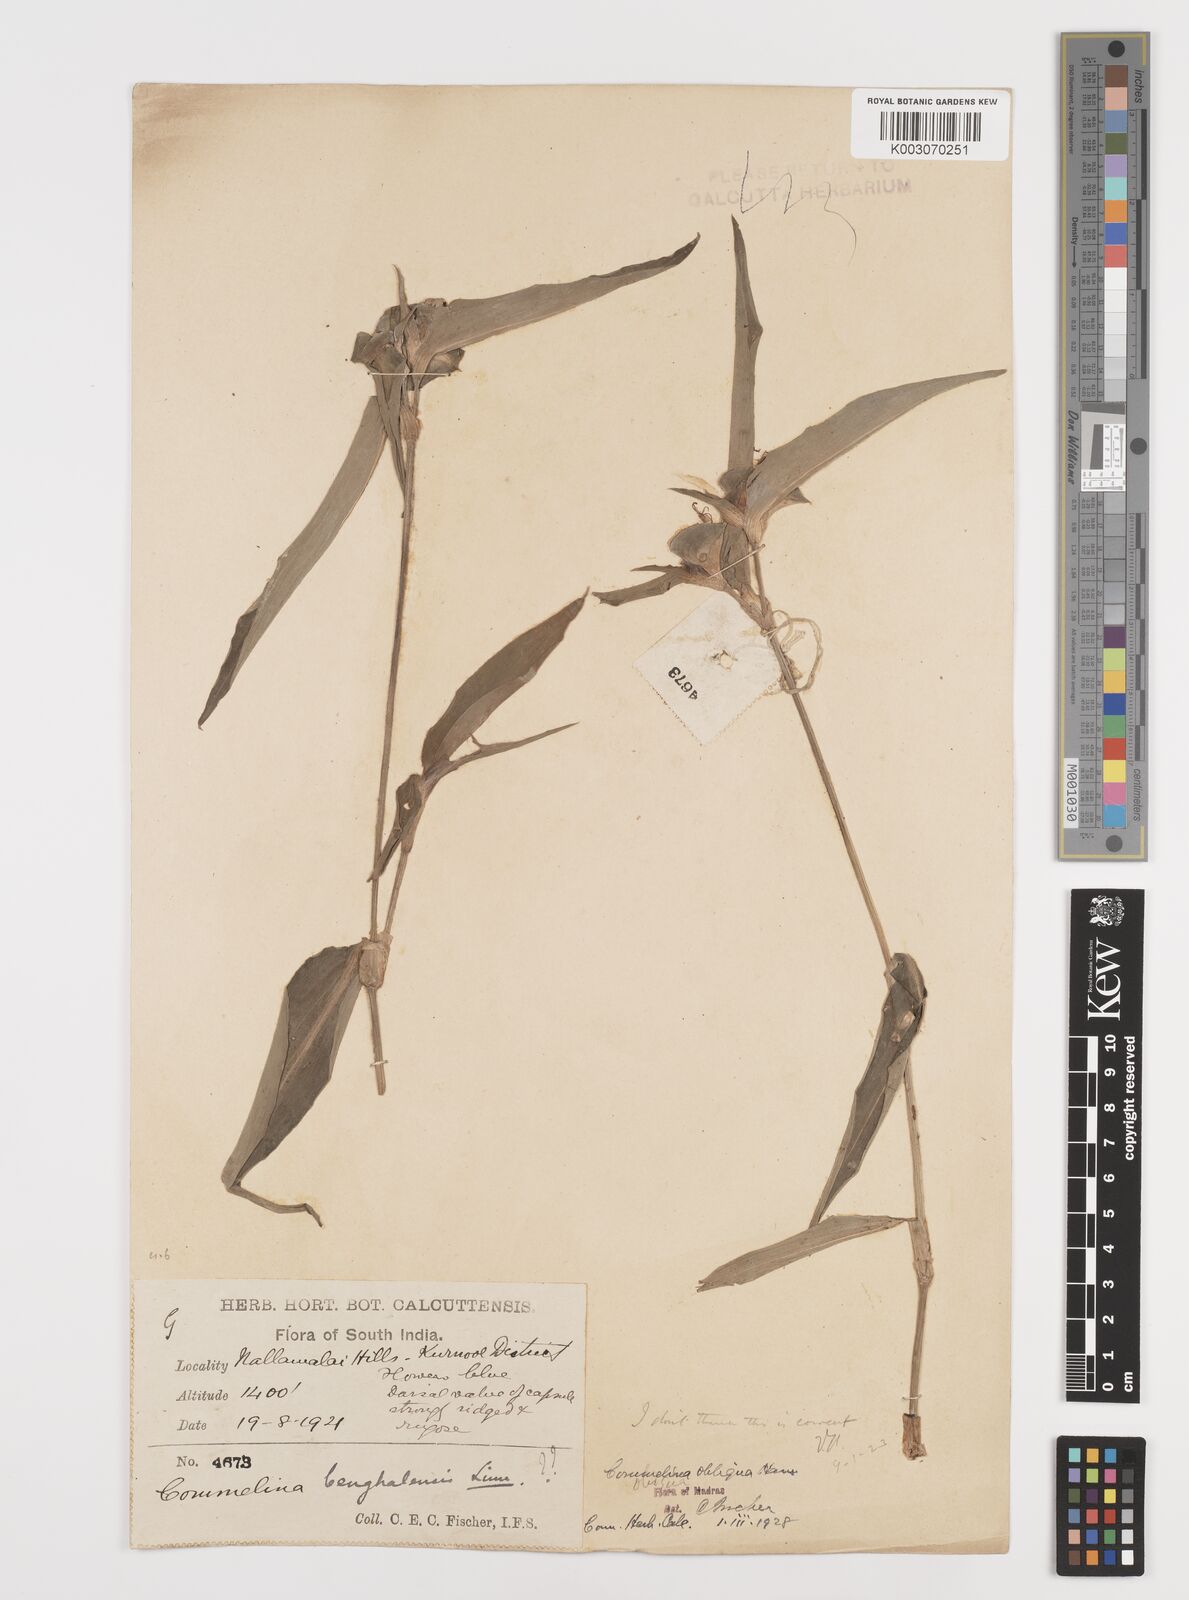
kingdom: Plantae
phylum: Tracheophyta
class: Liliopsida
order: Commelinales
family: Commelinaceae
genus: Commelina
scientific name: Commelina paludosa
